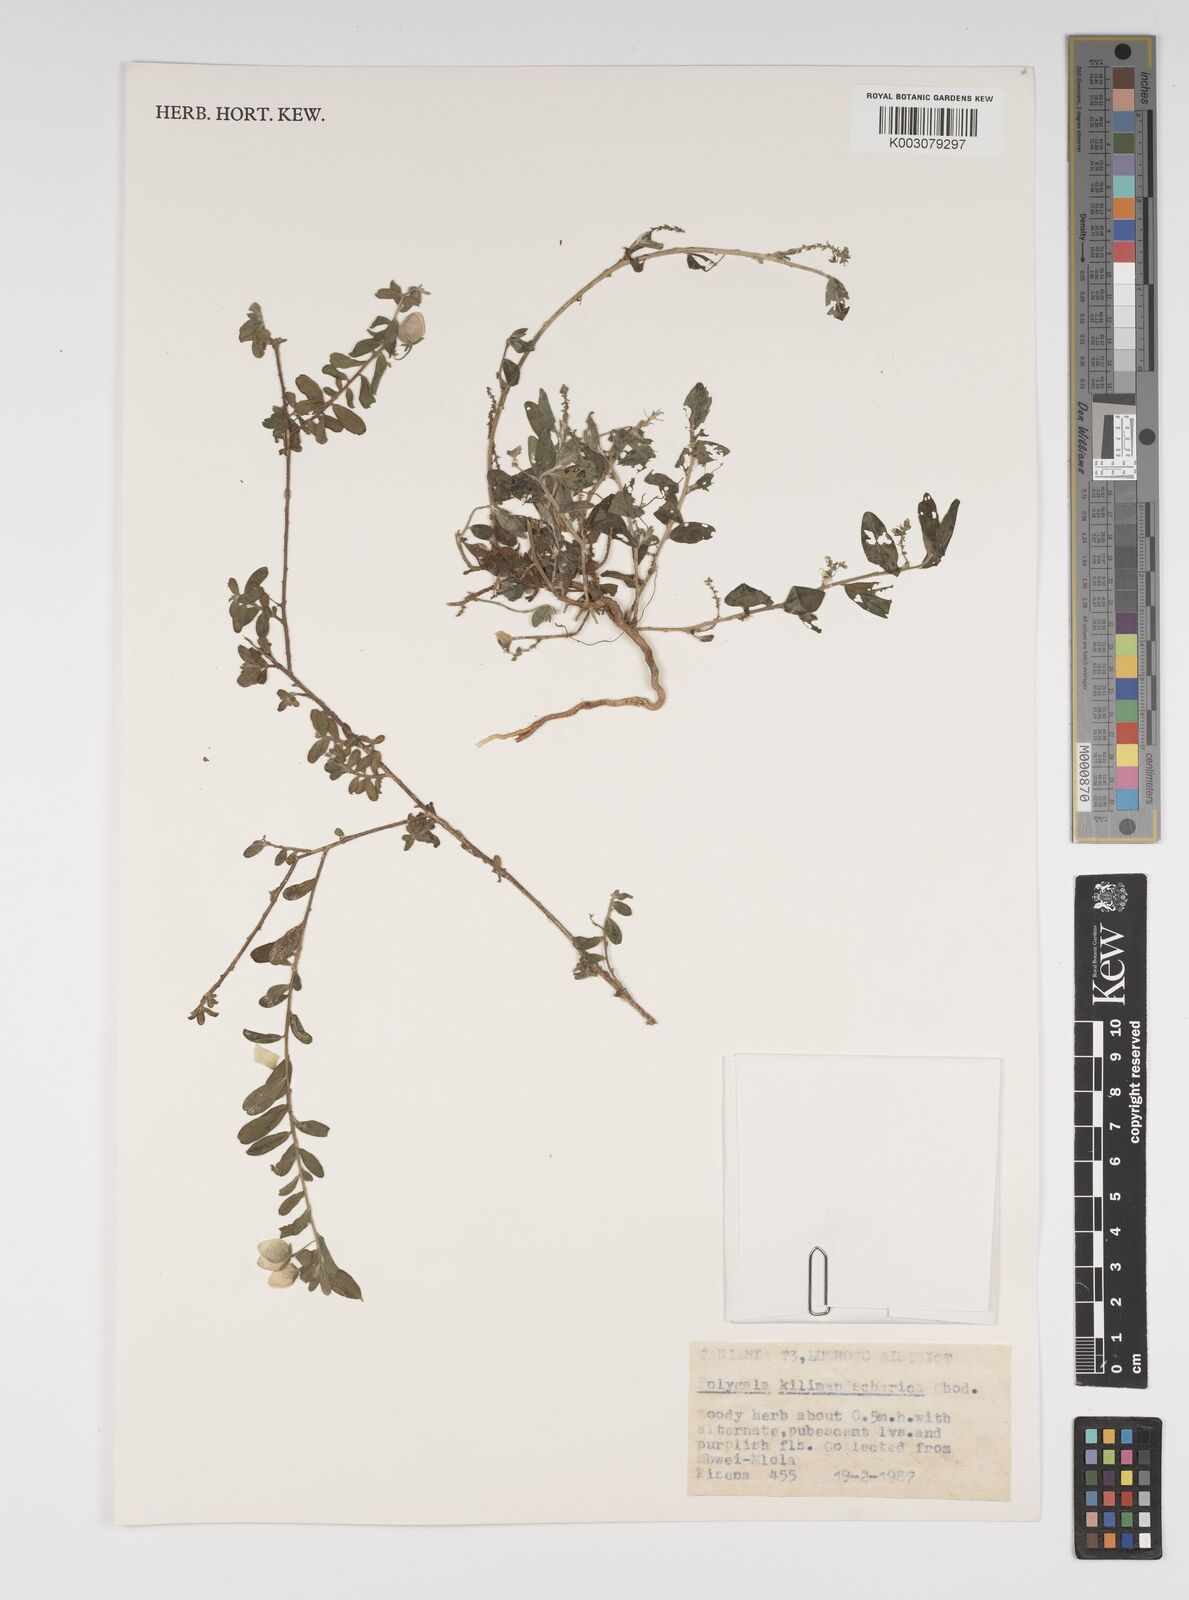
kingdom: Plantae
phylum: Tracheophyta
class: Magnoliopsida
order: Fabales
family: Polygalaceae
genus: Polygala
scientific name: Polygala kilimandjarica
